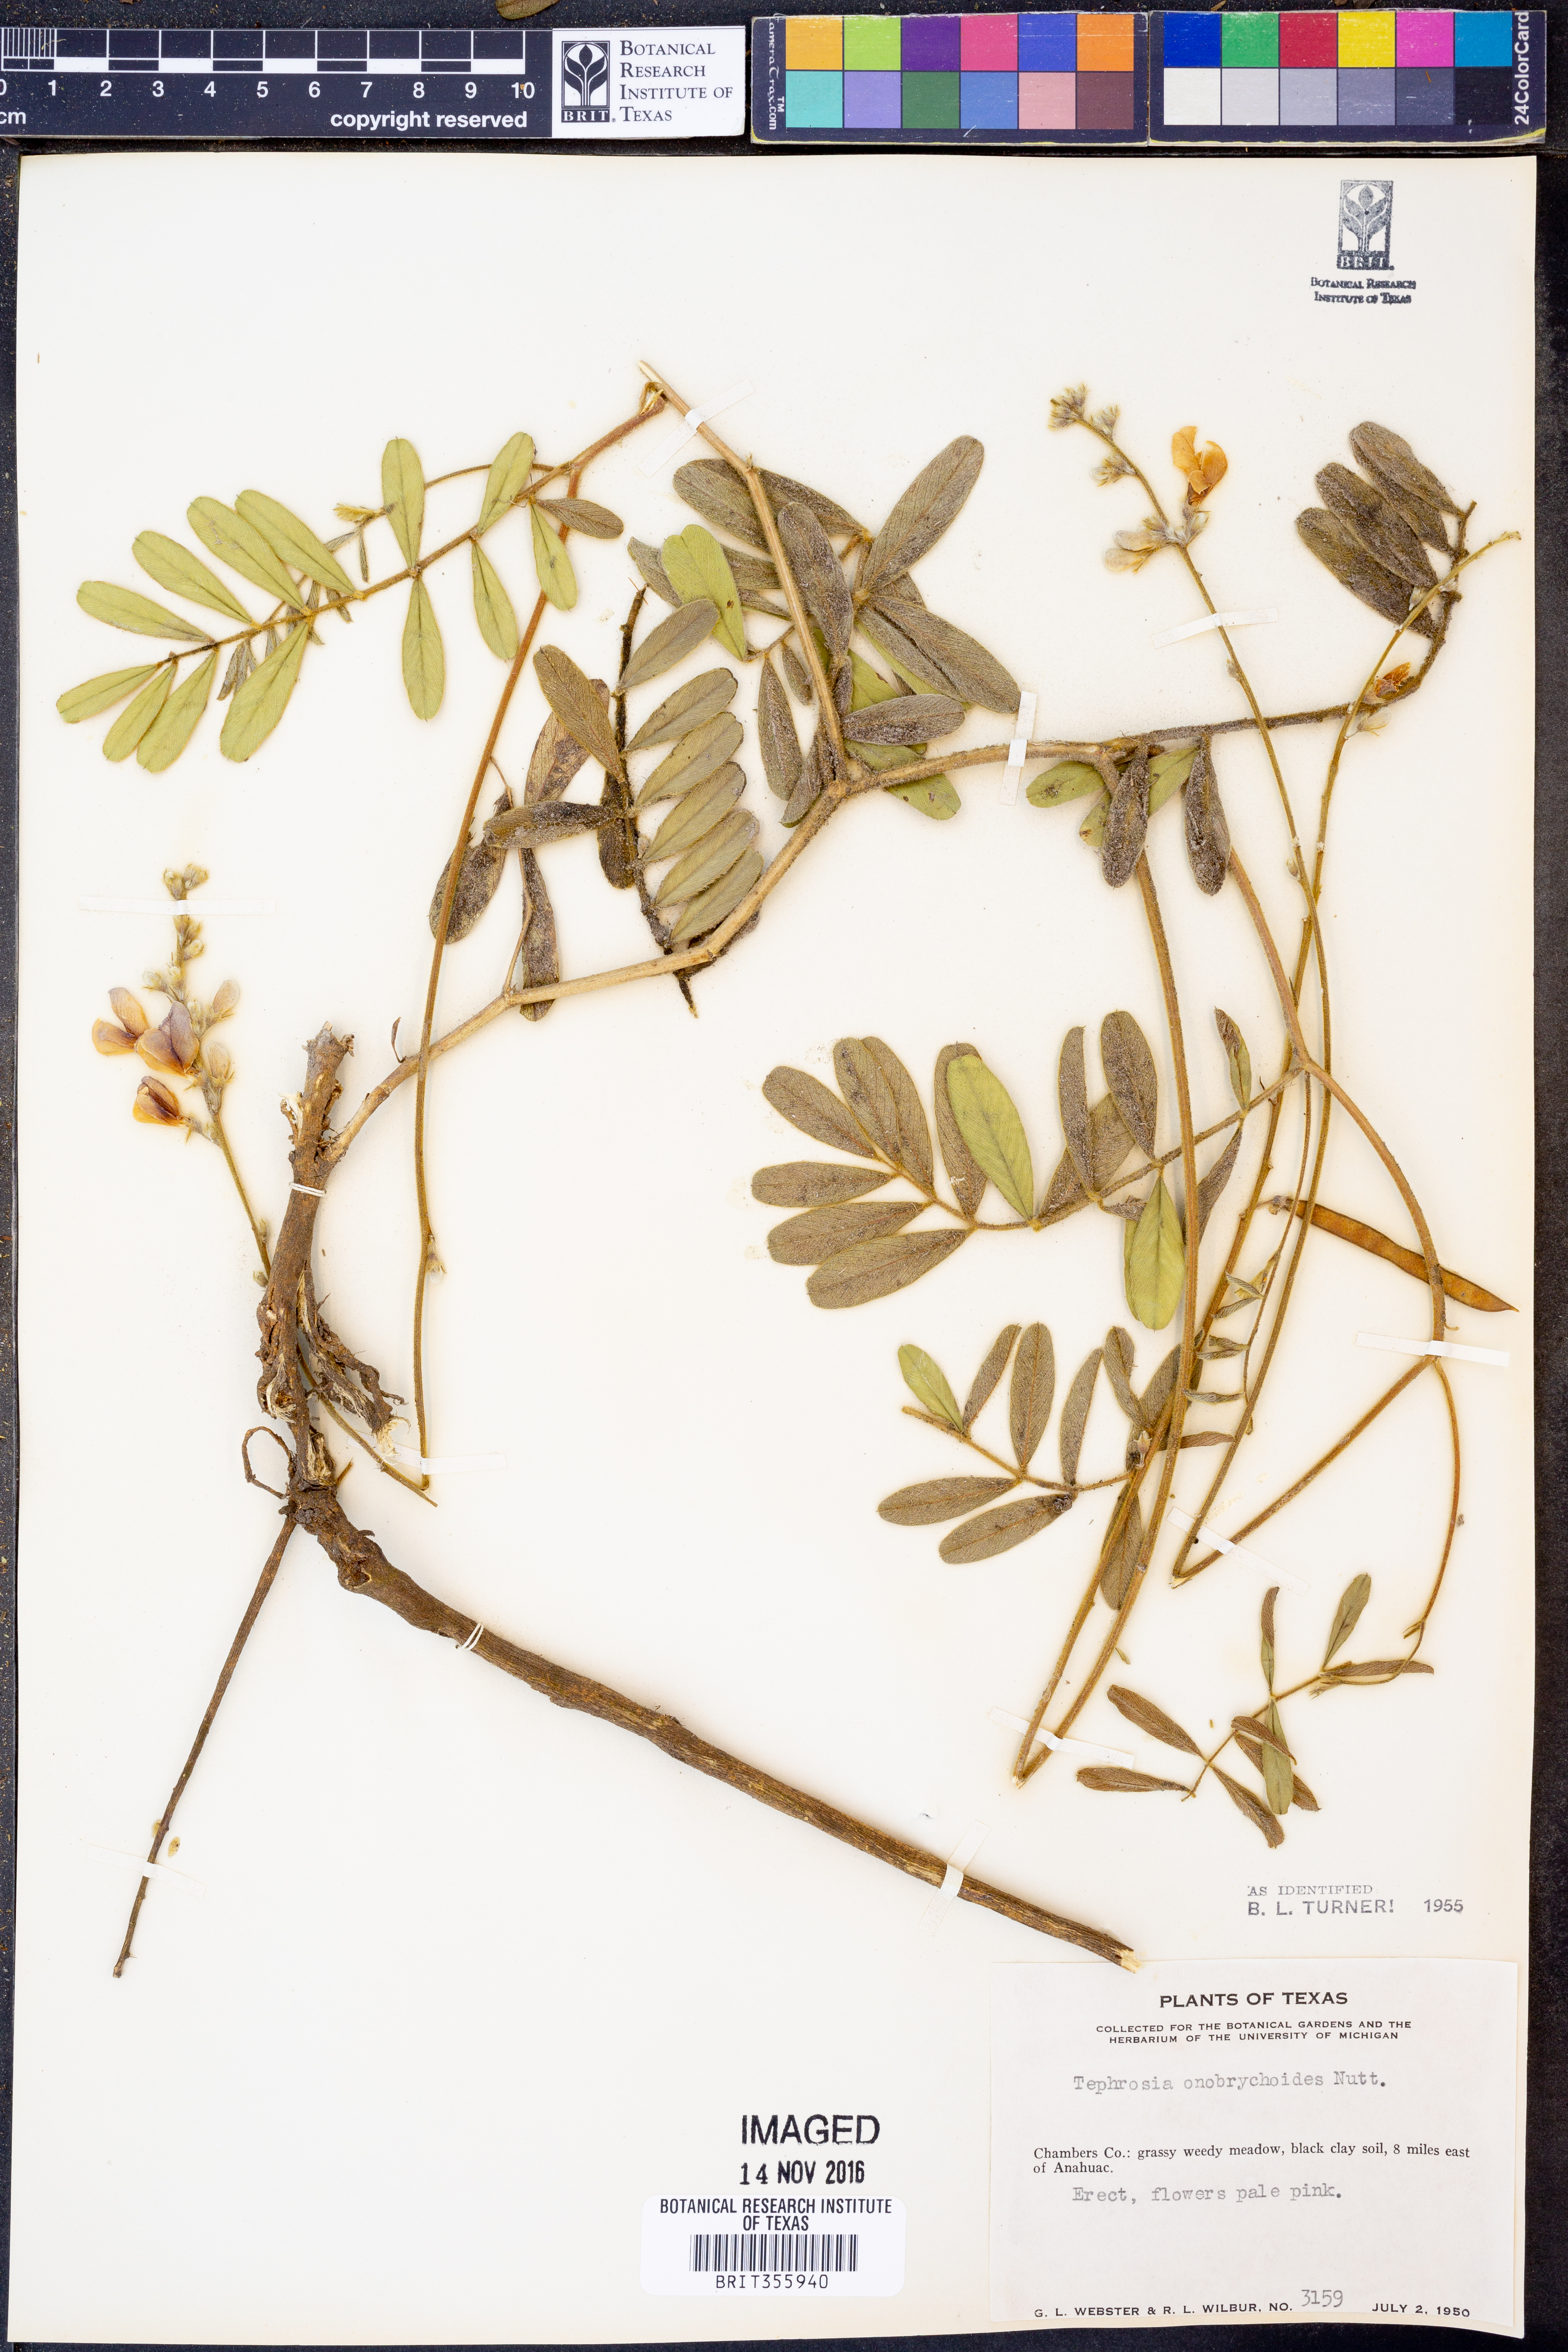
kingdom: Plantae
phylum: Tracheophyta
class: Magnoliopsida
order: Fabales
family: Fabaceae
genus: Tephrosia
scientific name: Tephrosia onobrychoides
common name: Multi-bloom hoary-pea
